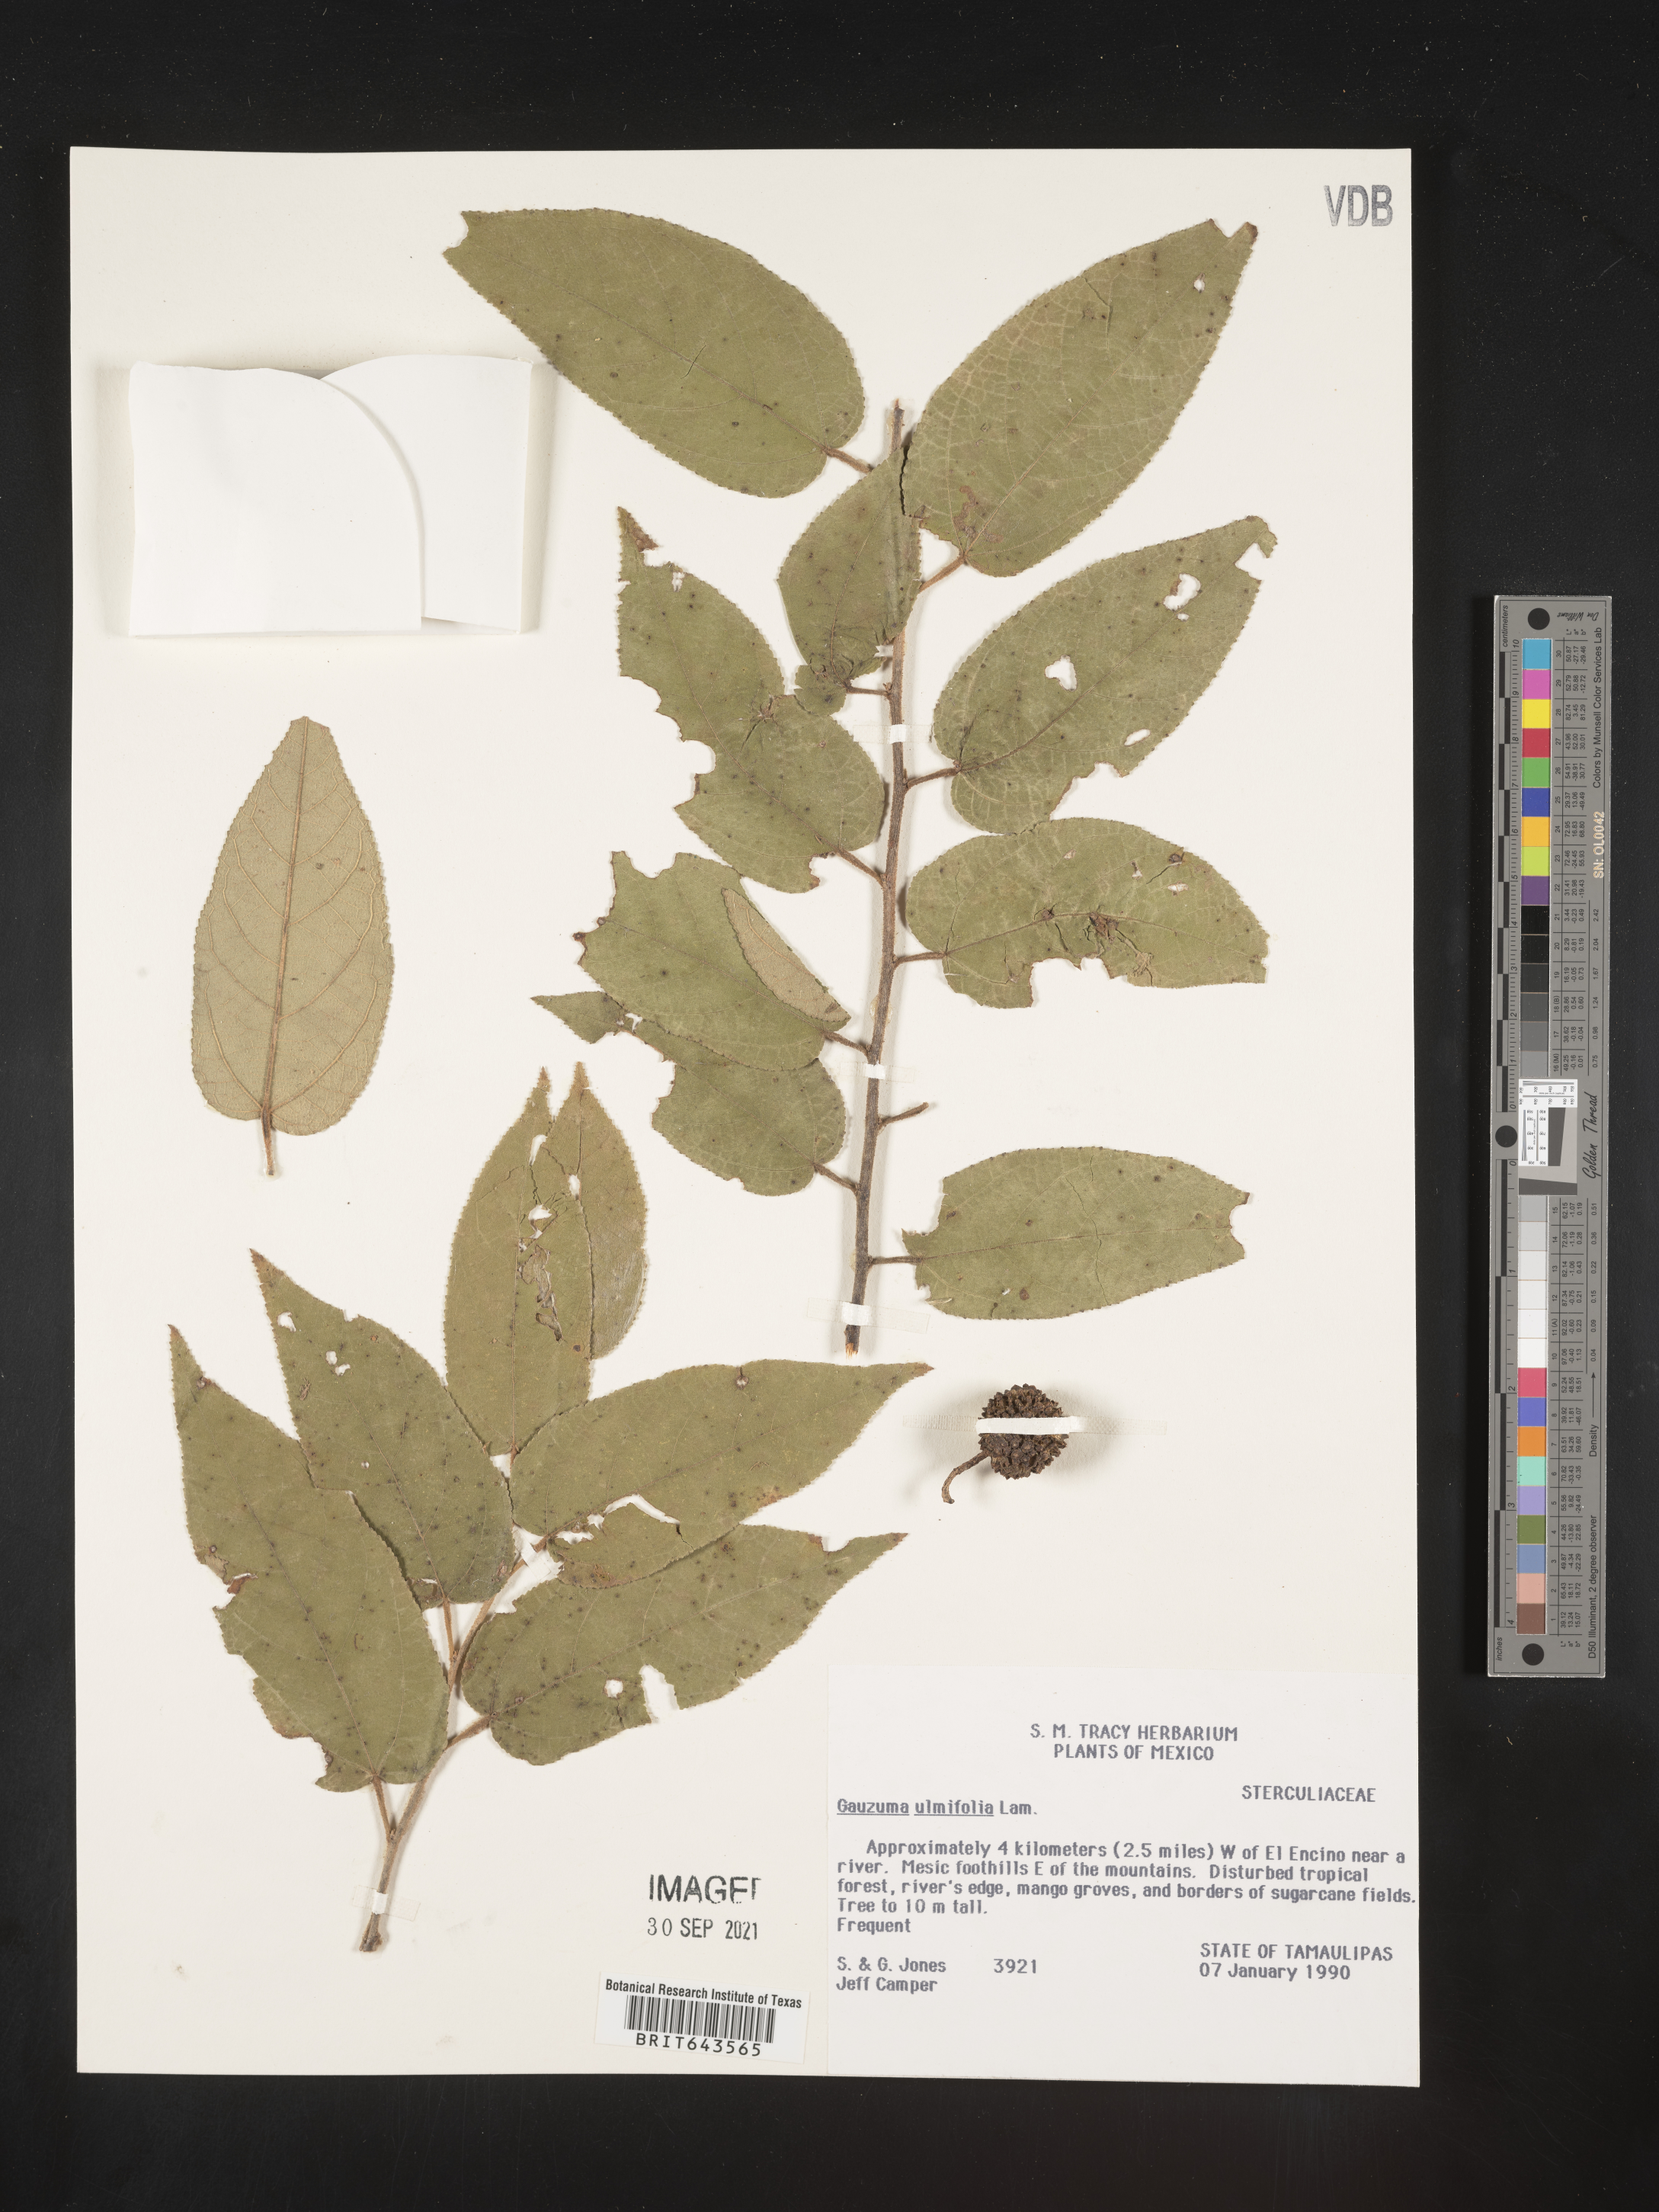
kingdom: Plantae
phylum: Tracheophyta
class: Magnoliopsida
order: Malvales
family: Malvaceae
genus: Guazuma
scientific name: Guazuma
